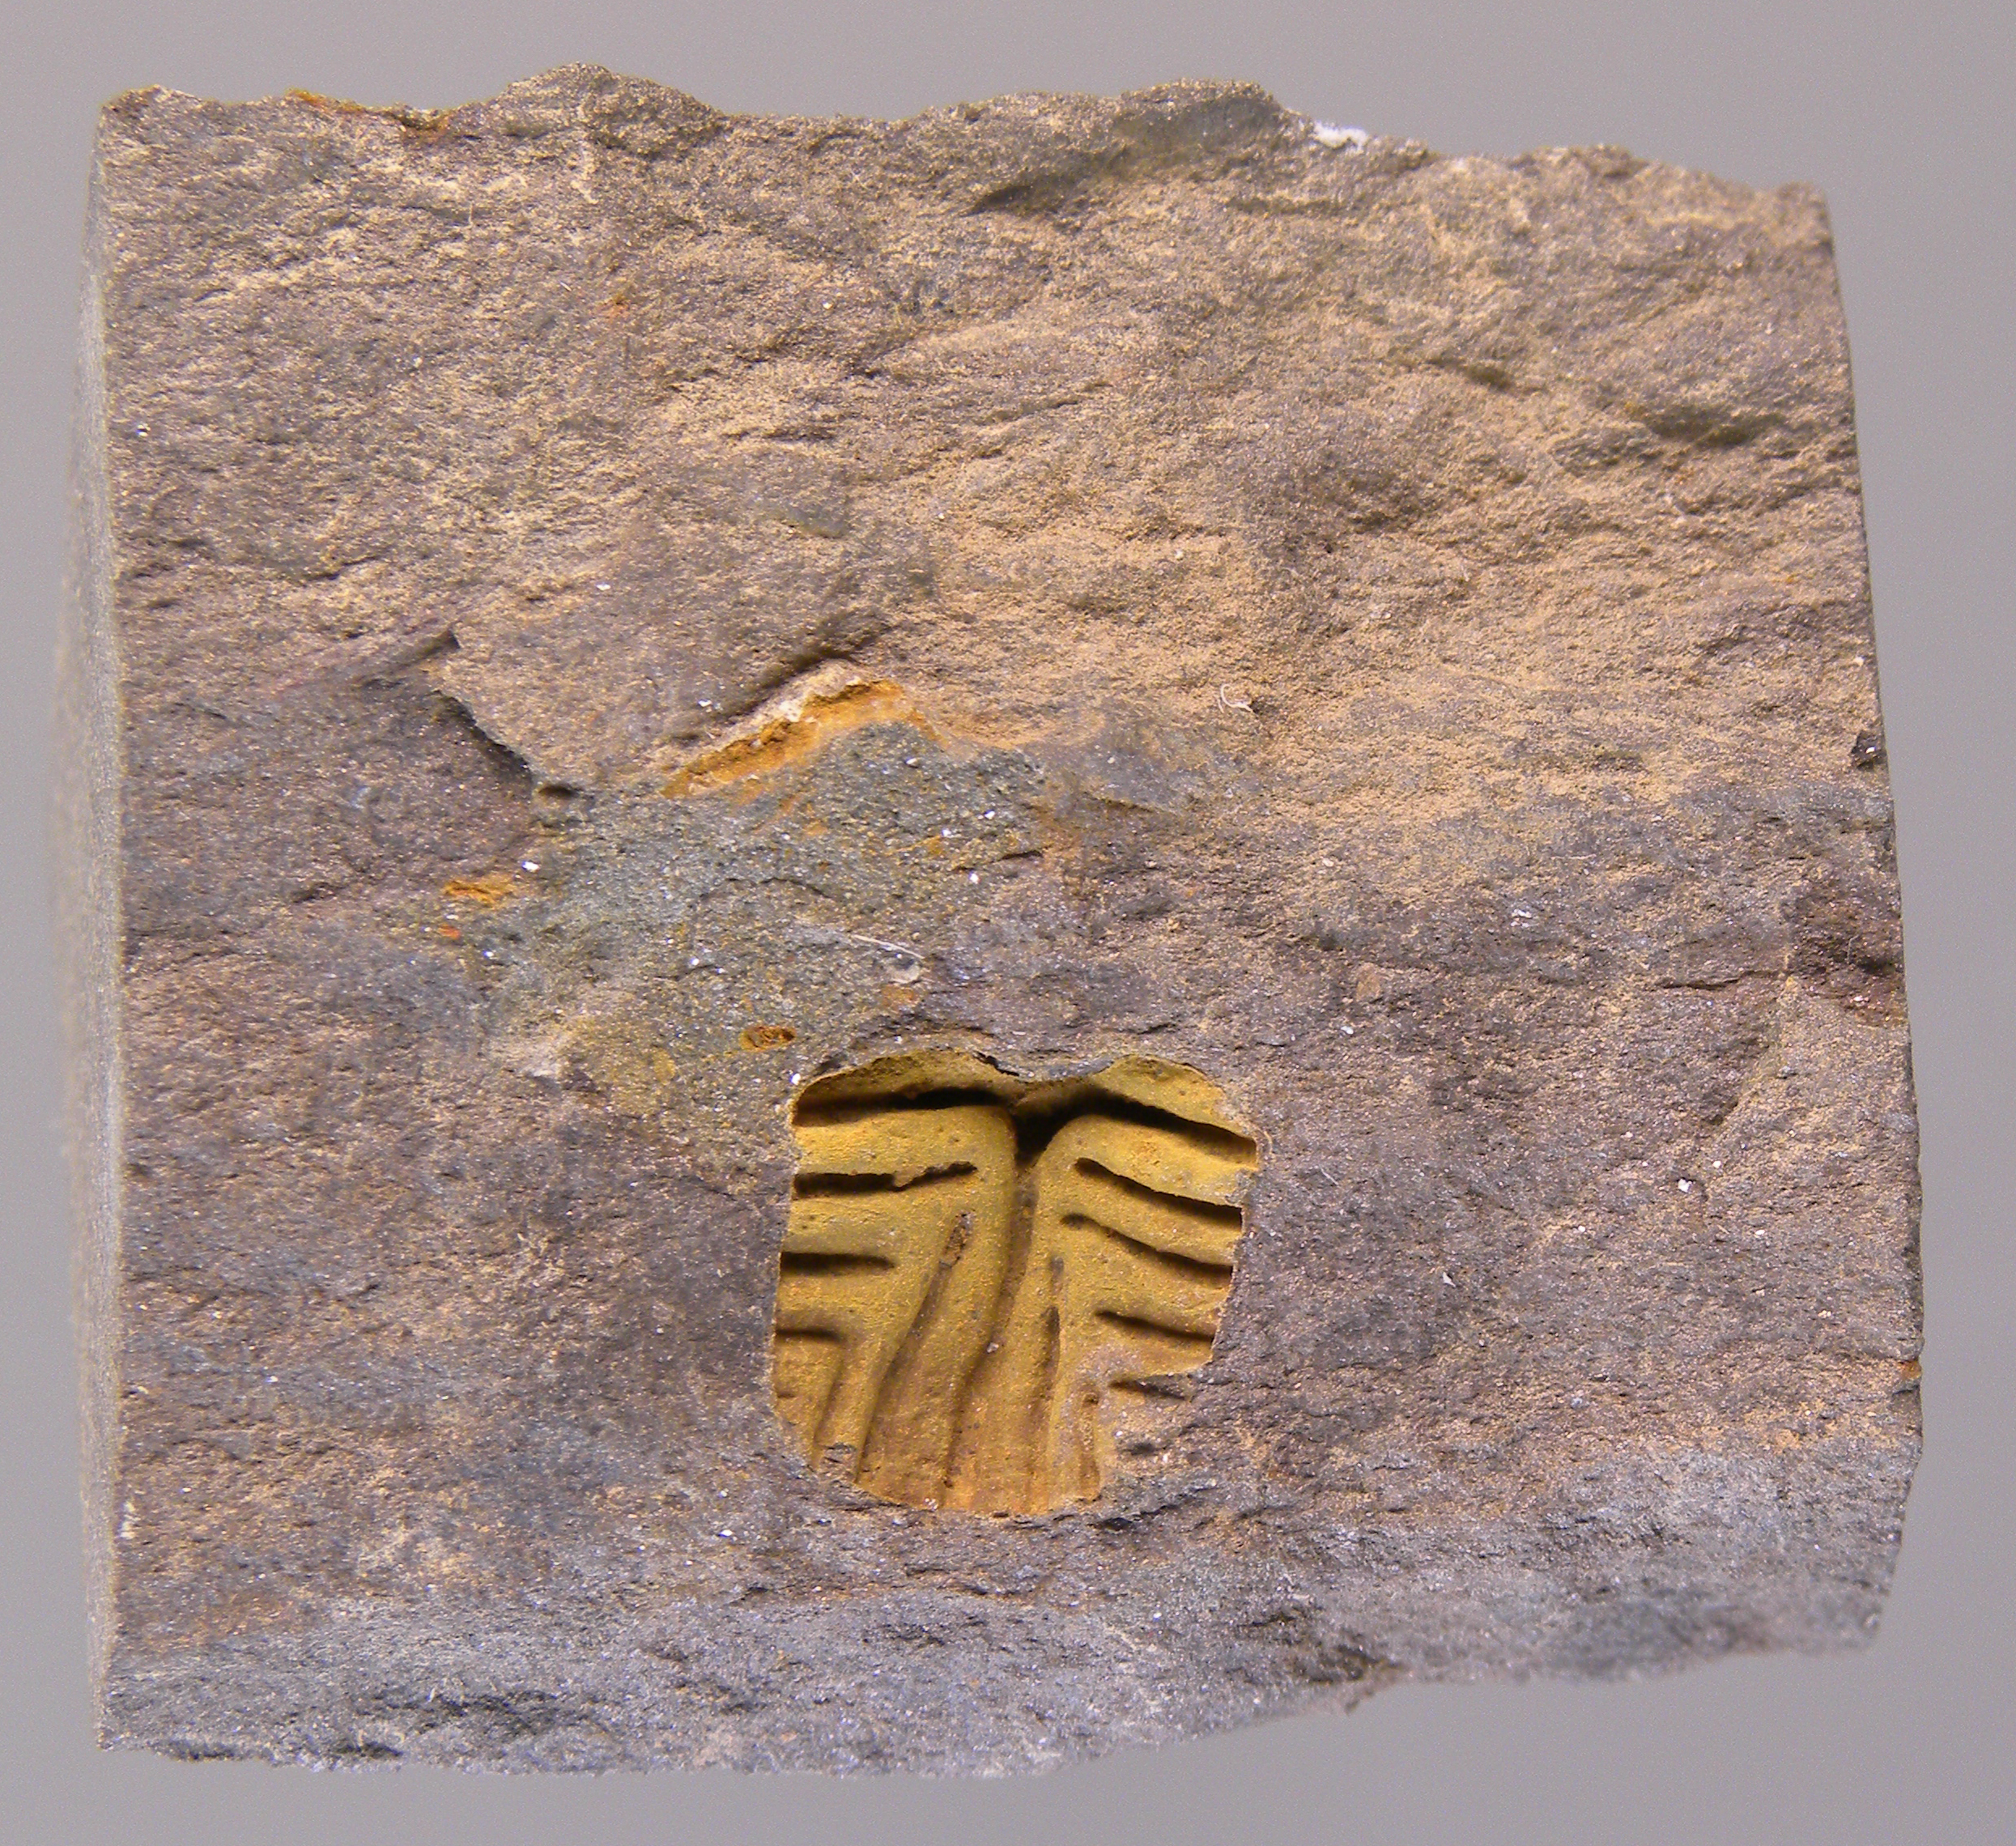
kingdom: Animalia
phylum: Echinodermata
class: Crinoidea
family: Melocrinitidae
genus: Ctenocrinus
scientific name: Ctenocrinus
